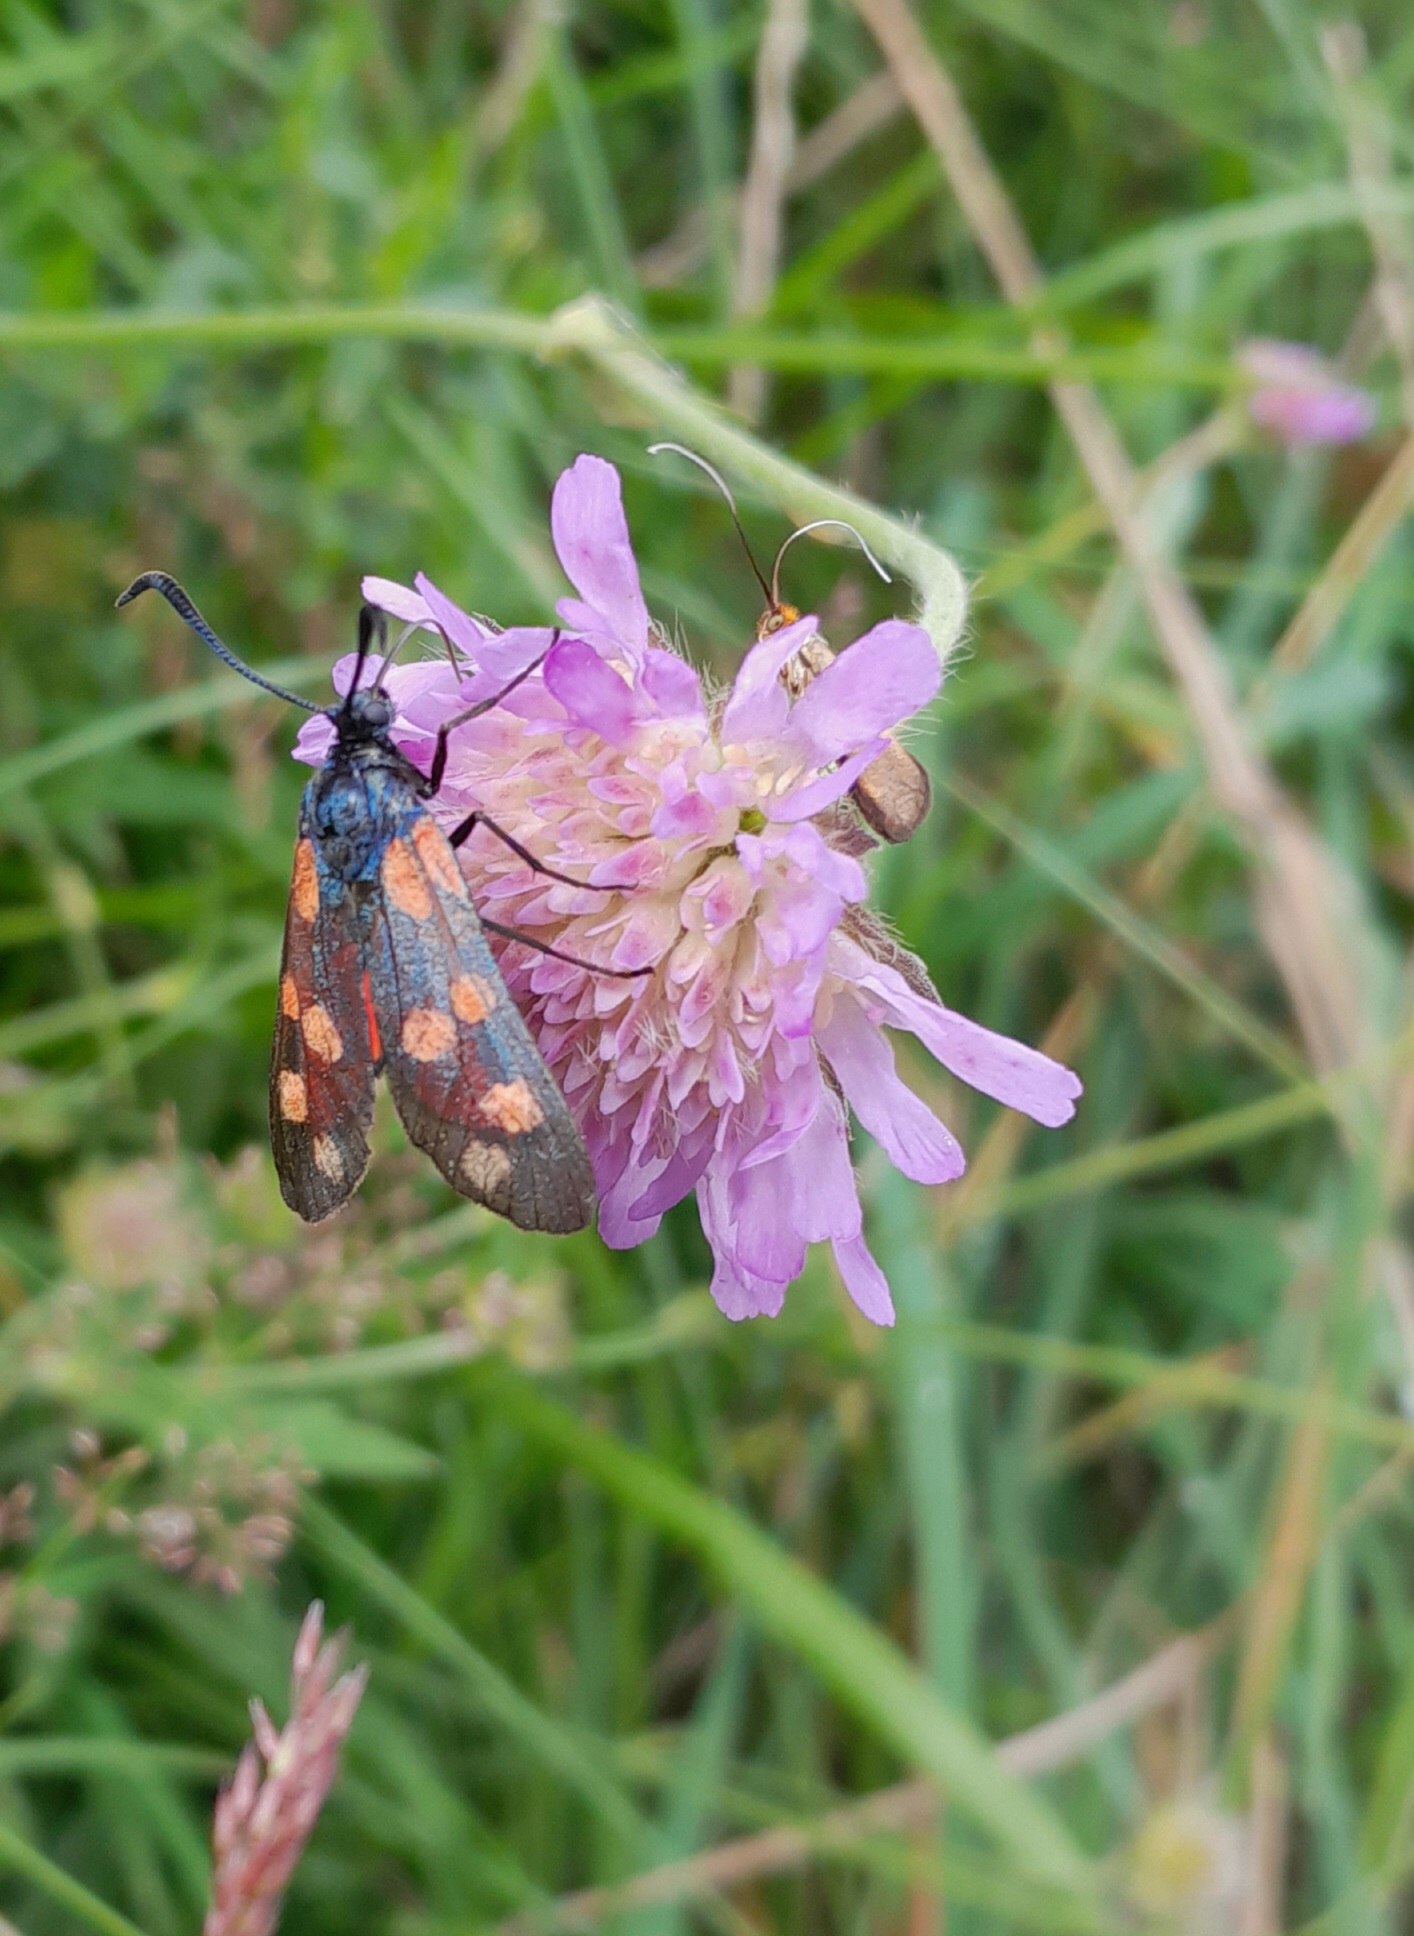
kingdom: Animalia
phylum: Arthropoda
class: Insecta
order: Lepidoptera
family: Zygaenidae
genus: Zygaena
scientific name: Zygaena filipendulae
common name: Seksplettet køllesværmer
